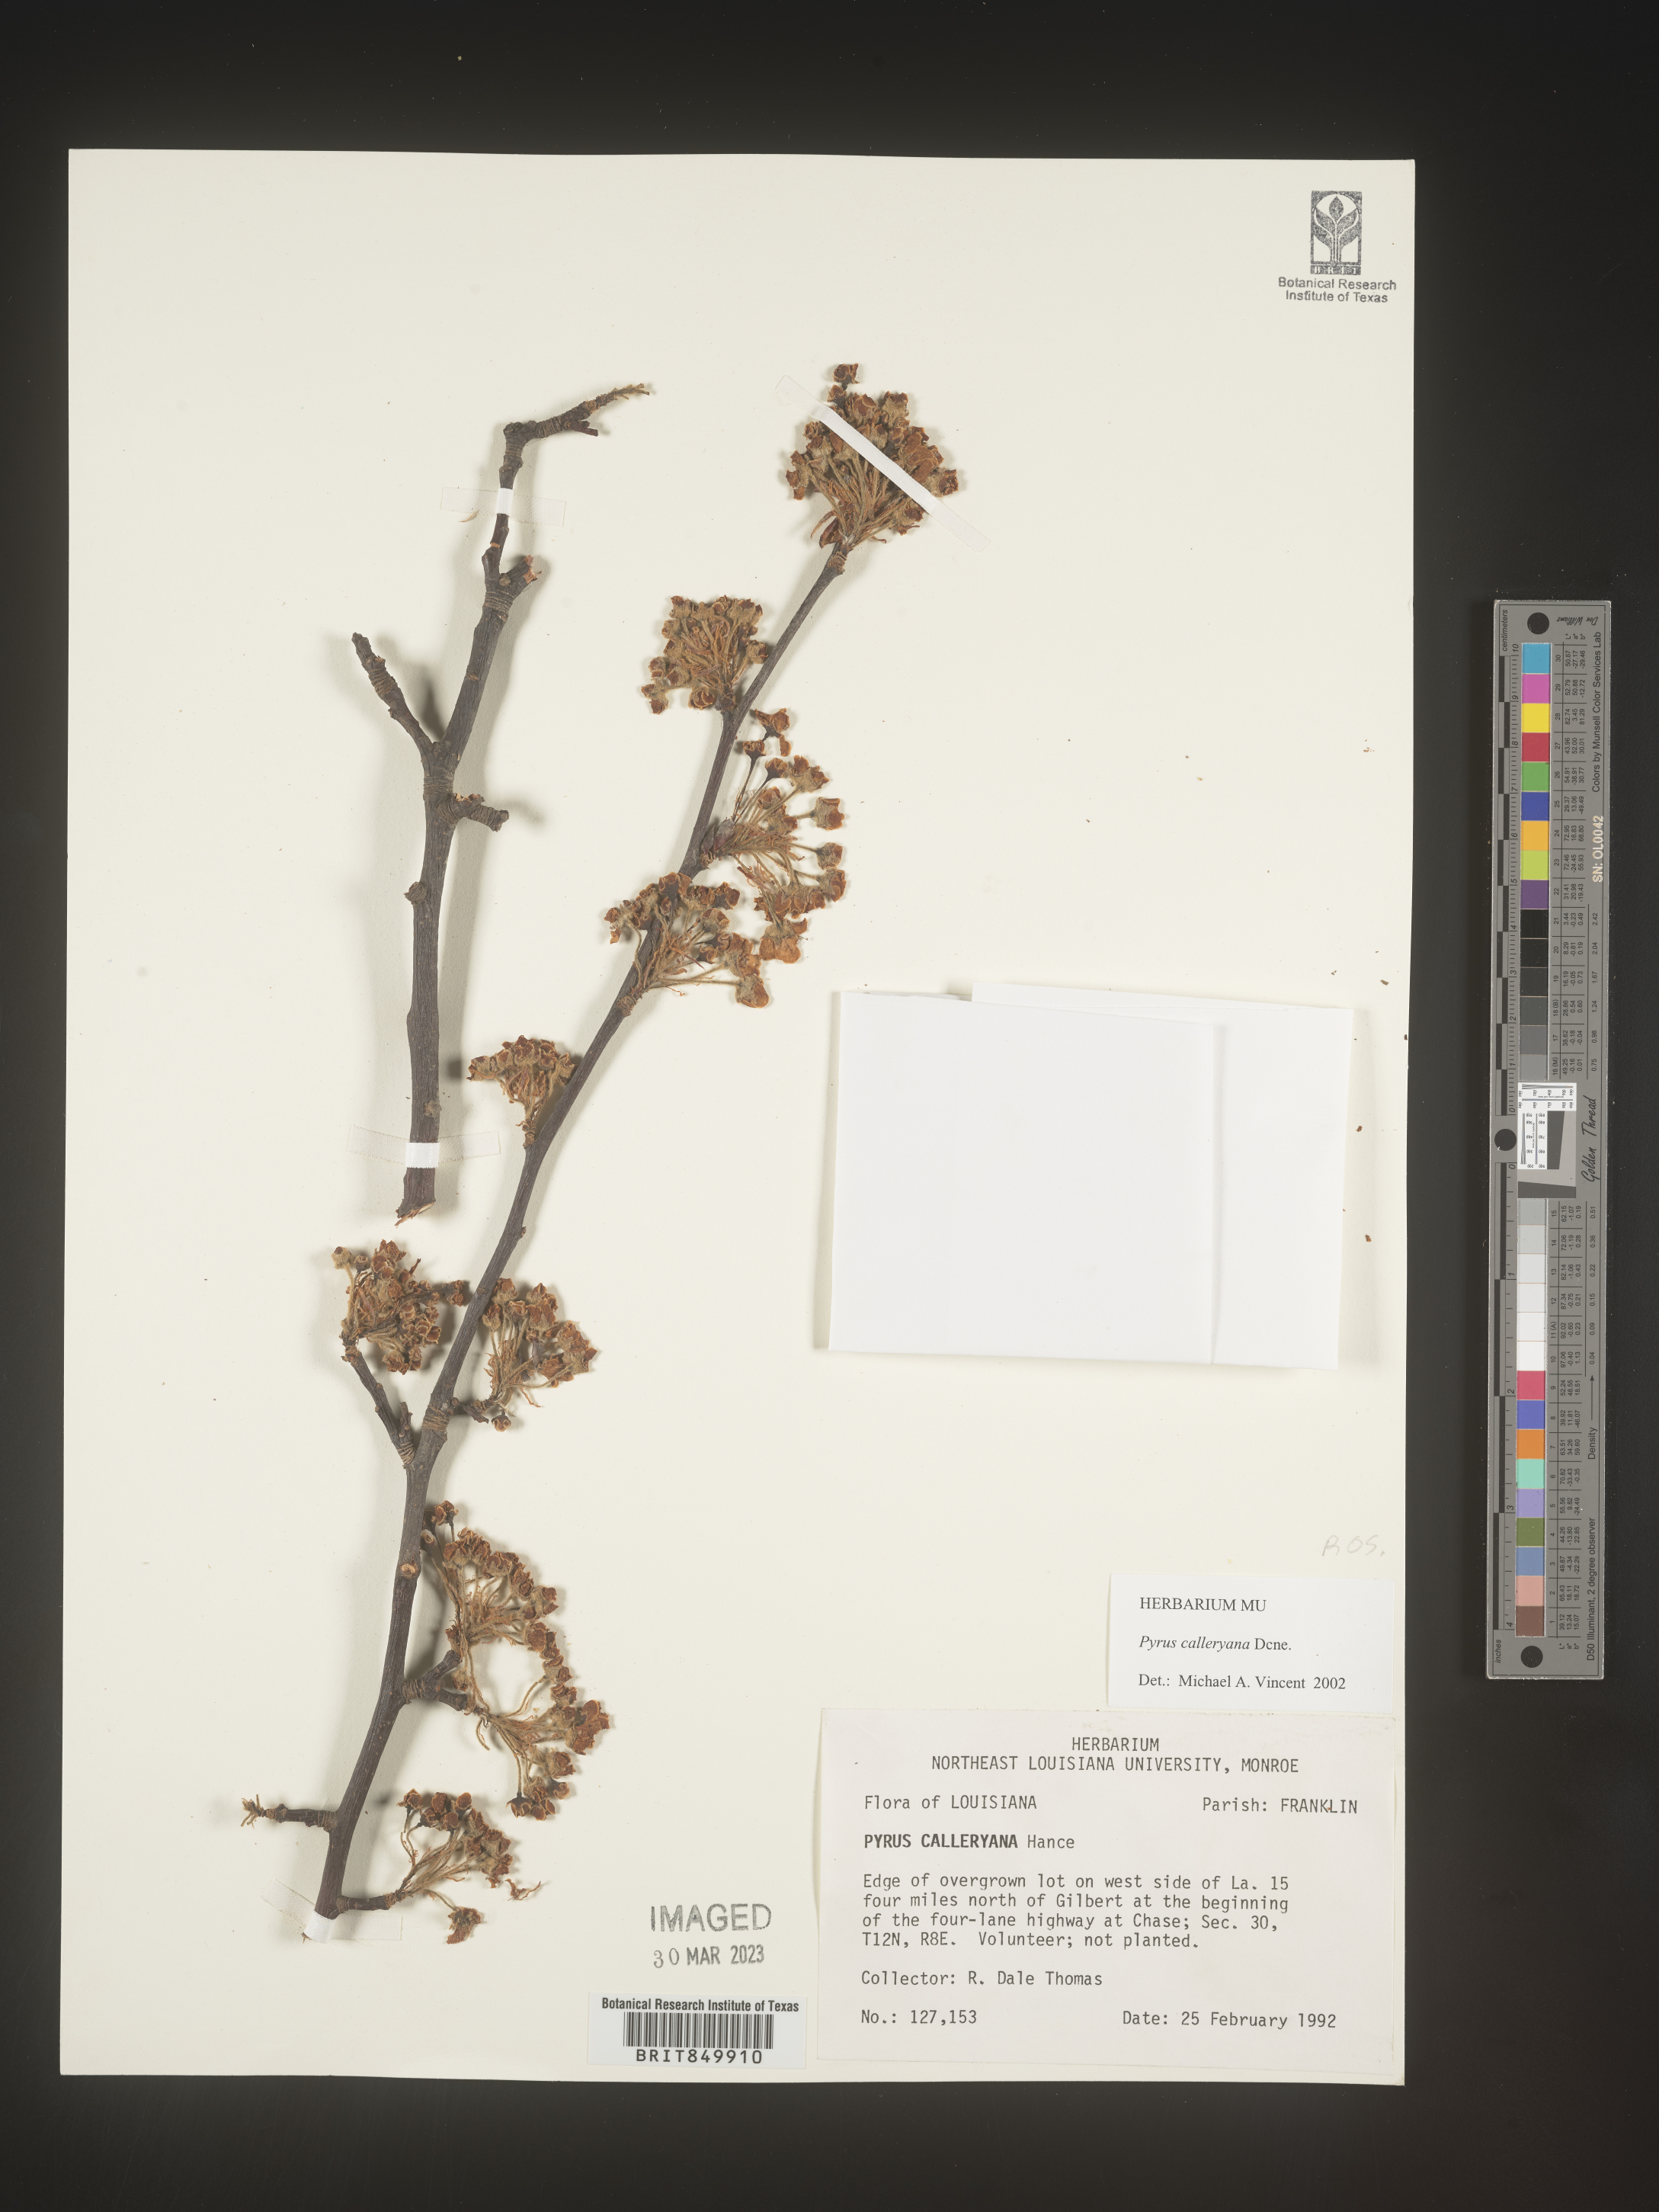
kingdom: Plantae
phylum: Tracheophyta
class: Magnoliopsida
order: Rosales
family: Rosaceae
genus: Pyrus
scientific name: Pyrus
